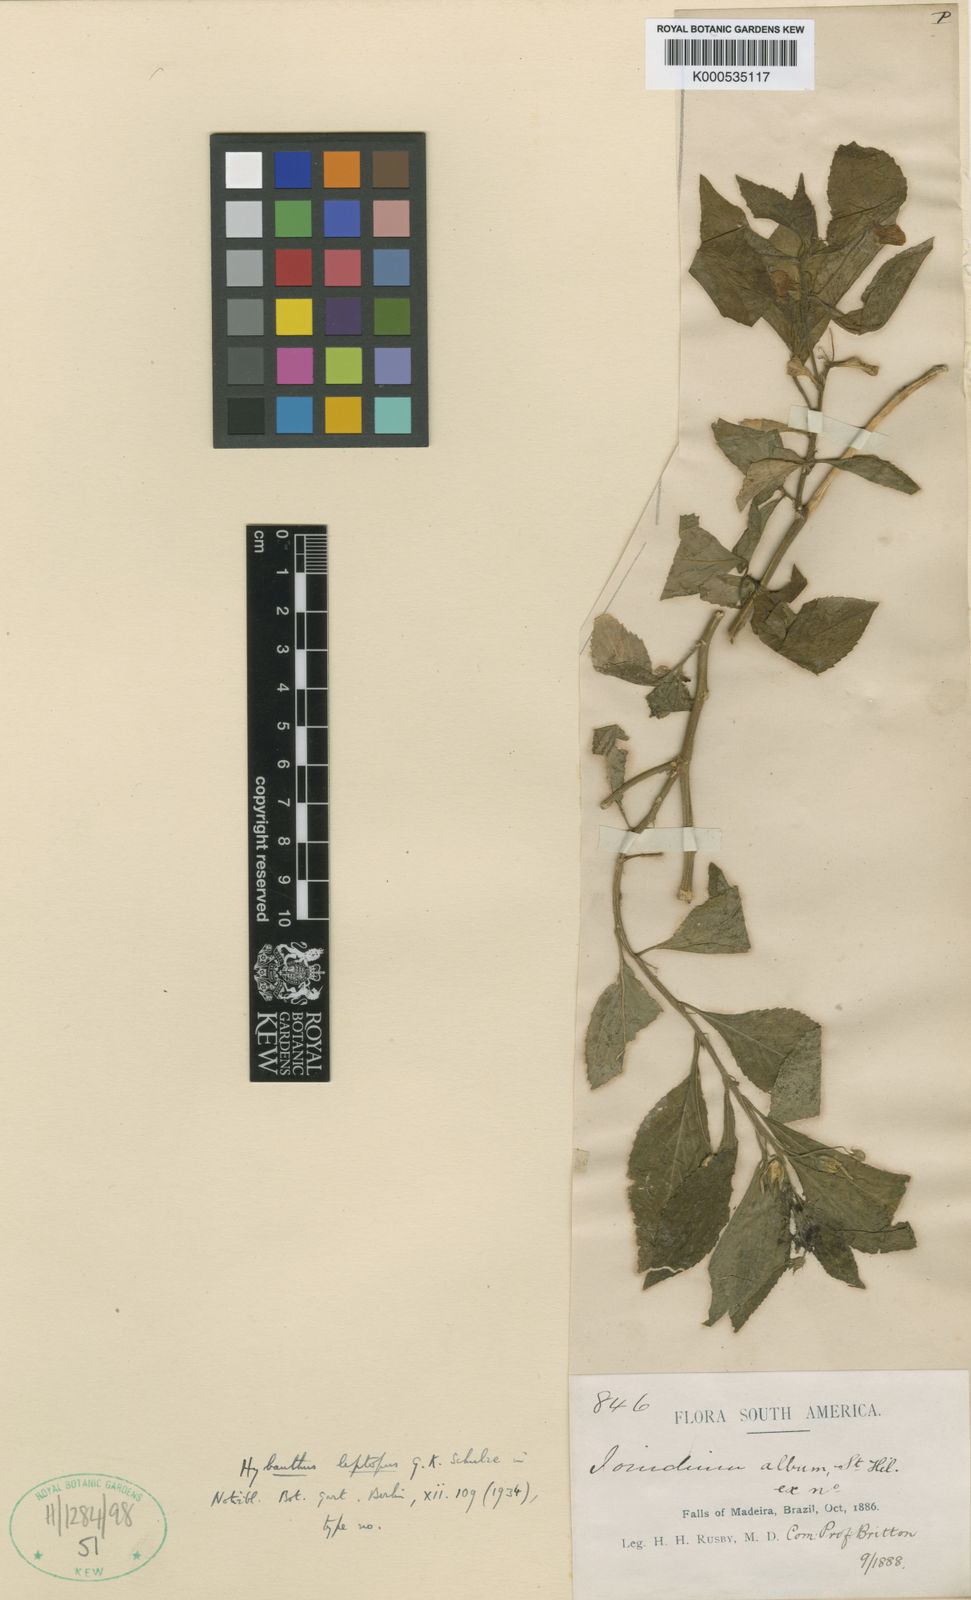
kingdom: Plantae
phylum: Tracheophyta
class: Magnoliopsida
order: Malpighiales
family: Violaceae
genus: Hybanthus
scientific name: Hybanthus leptopus
